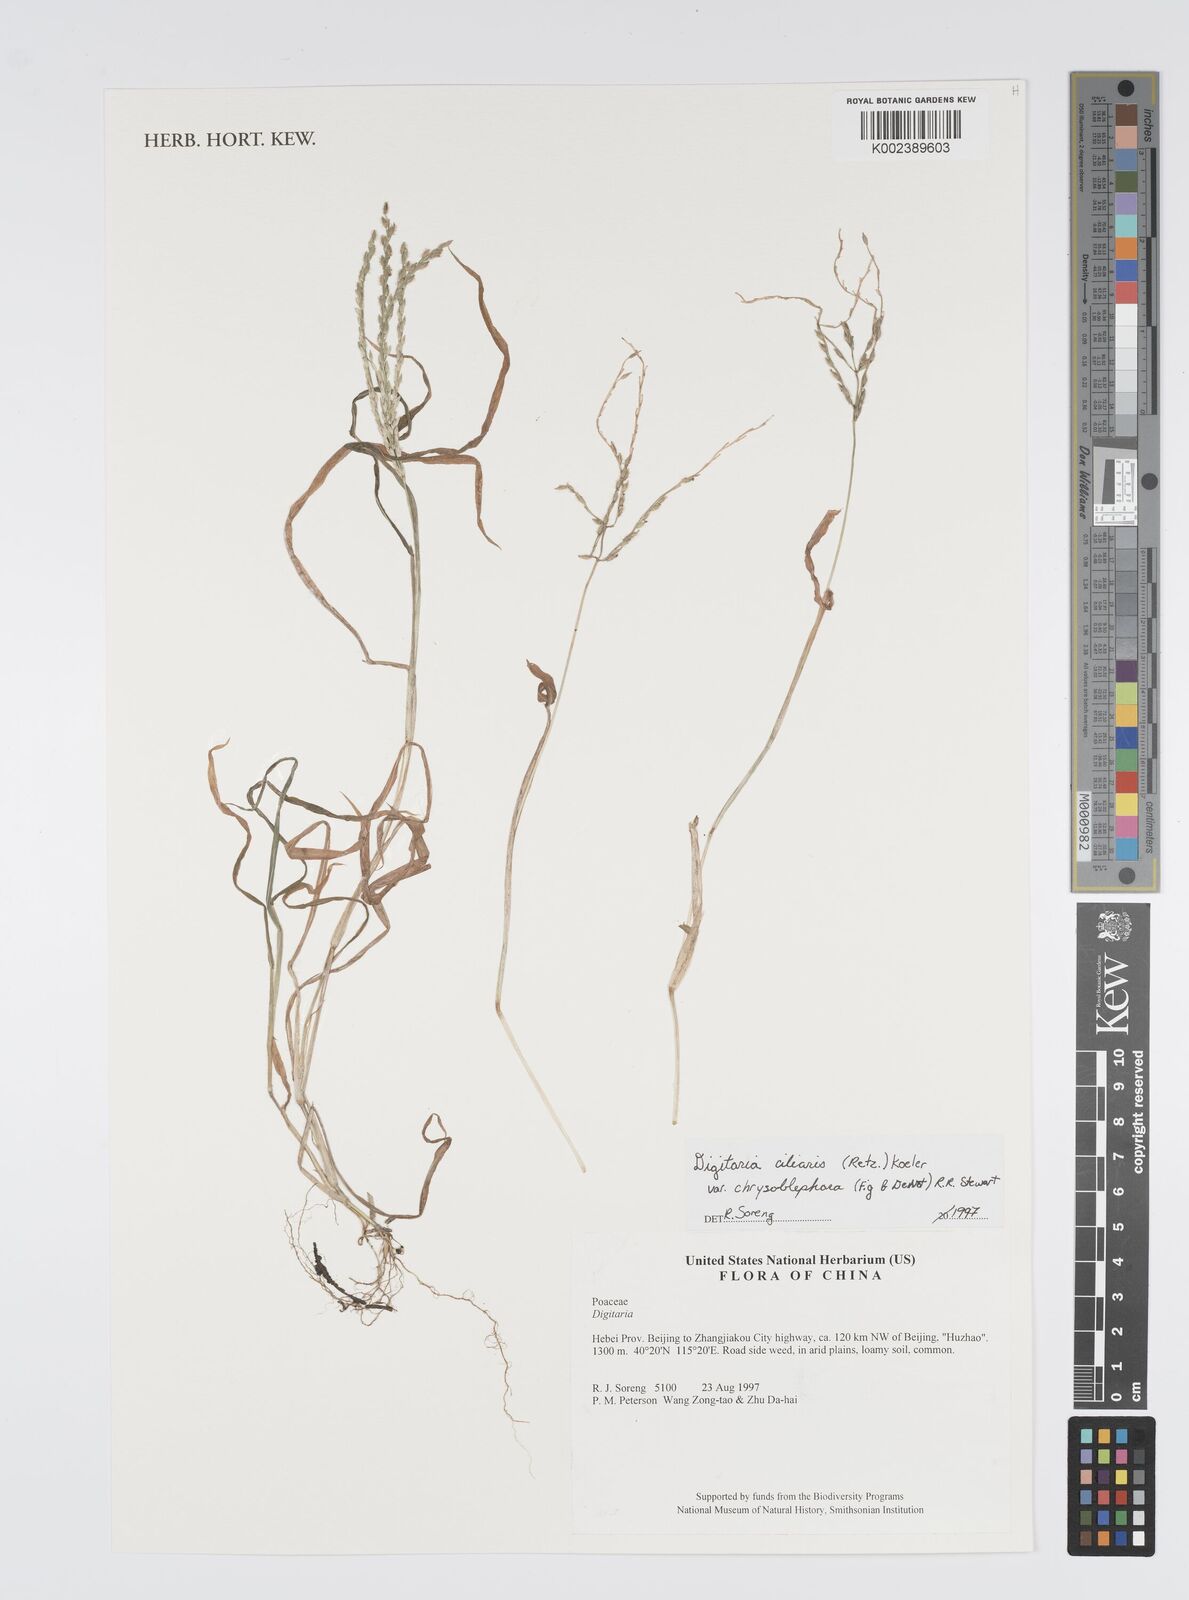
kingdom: Plantae
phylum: Tracheophyta
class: Liliopsida
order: Poales
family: Poaceae
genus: Digitaria
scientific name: Digitaria ciliaris
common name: Tropical finger-grass
